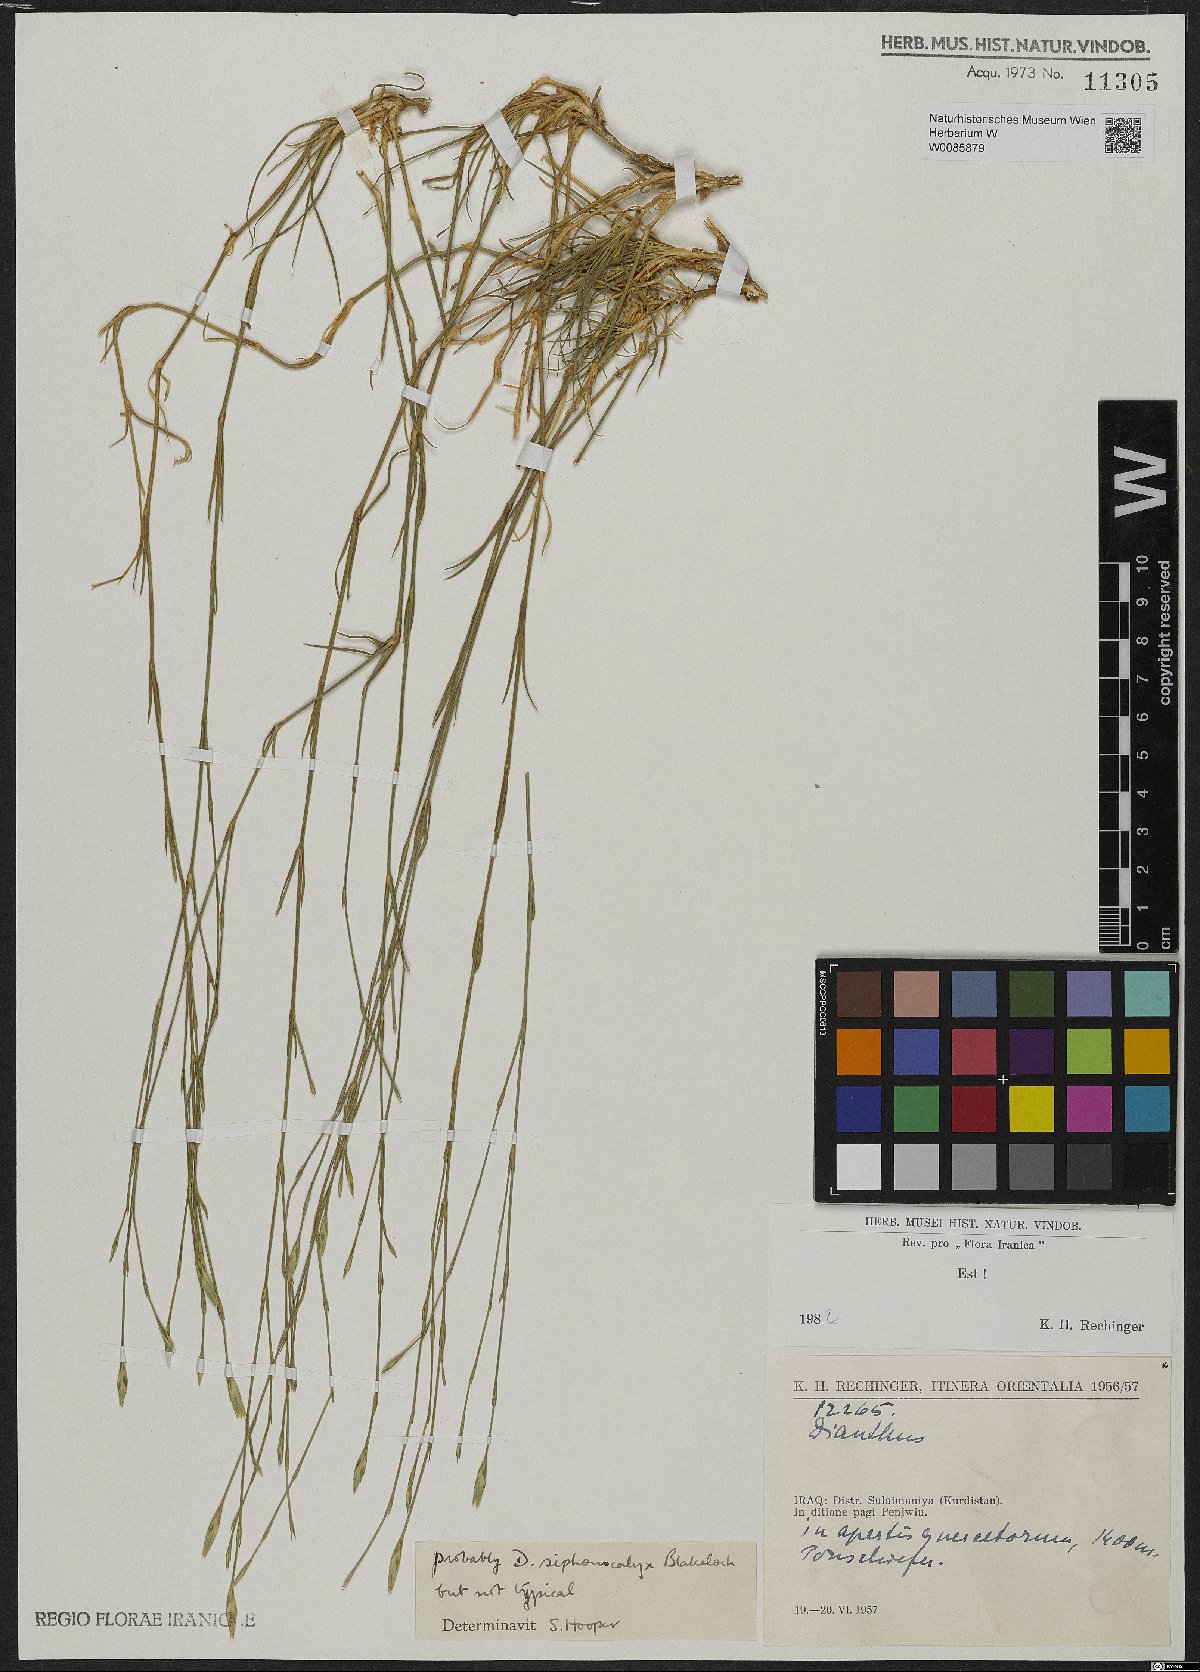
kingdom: Plantae
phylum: Tracheophyta
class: Magnoliopsida
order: Caryophyllales
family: Caryophyllaceae
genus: Dianthus
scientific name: Dianthus siphonocalyx
